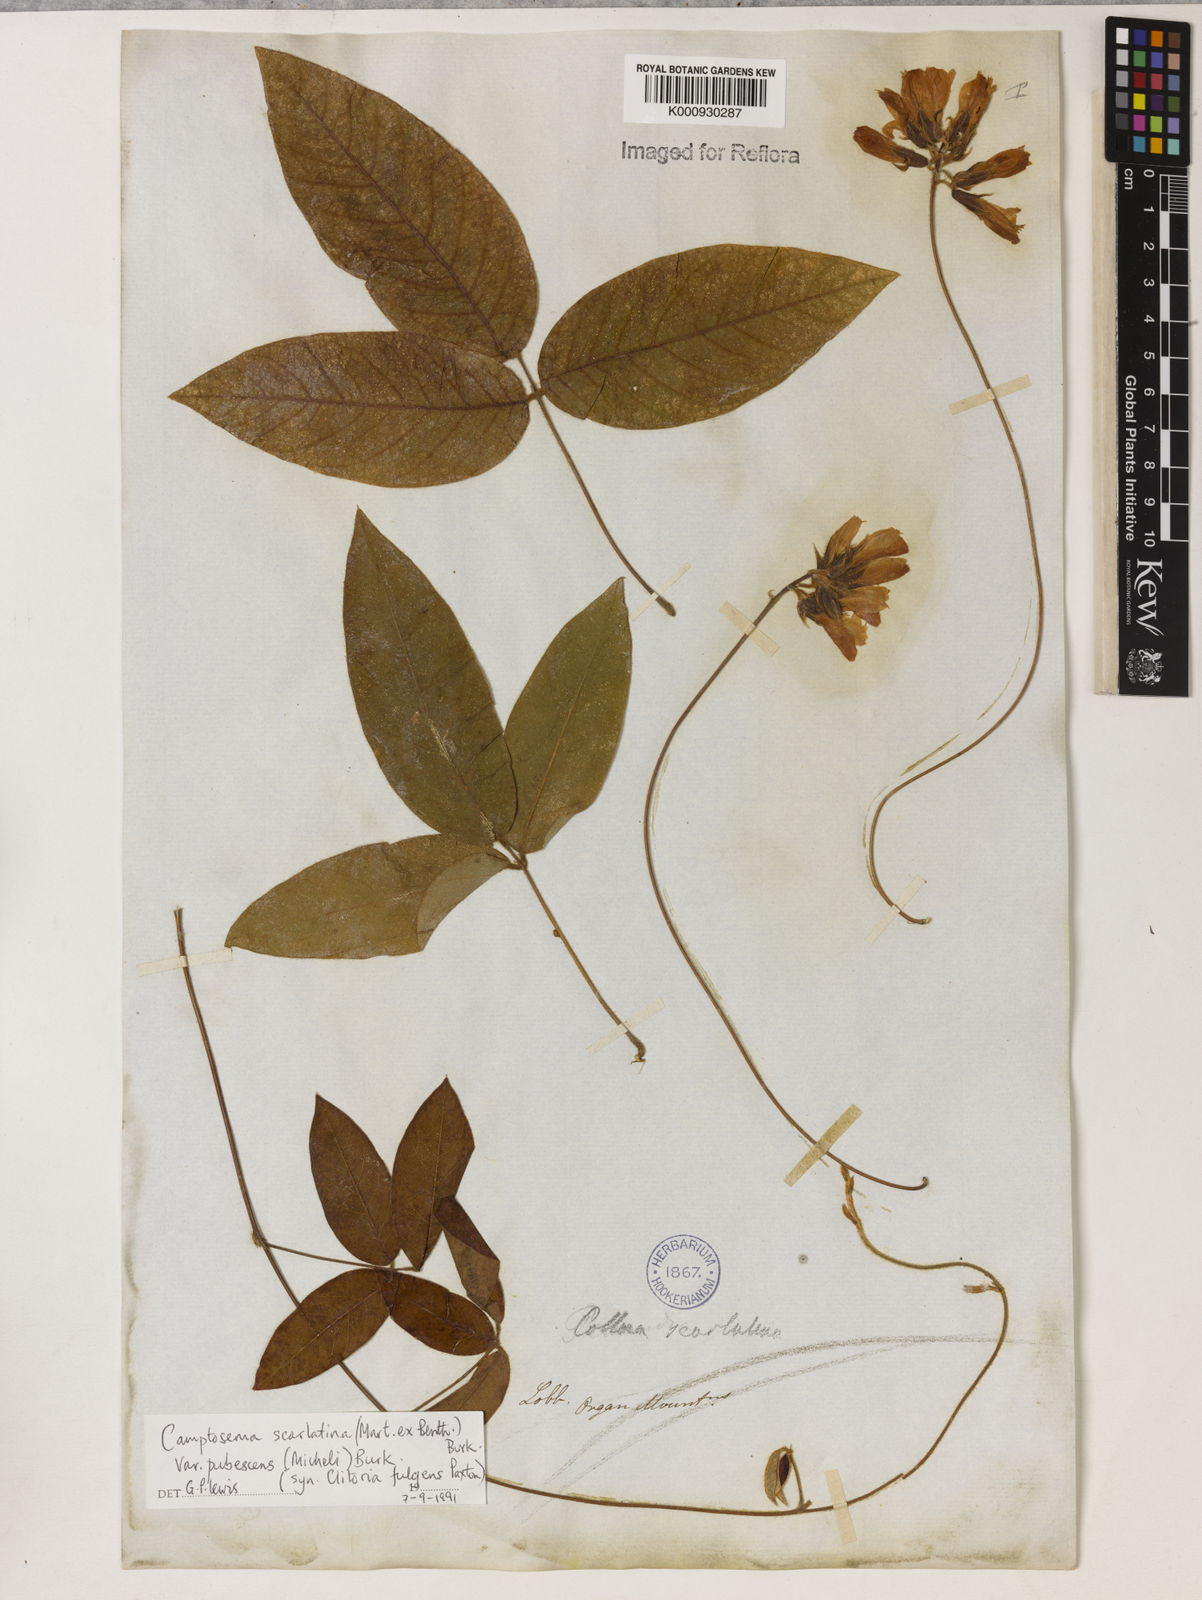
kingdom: Plantae
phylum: Tracheophyta
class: Magnoliopsida
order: Fabales
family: Fabaceae
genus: Betencourtia
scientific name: Betencourtia scarlatina
